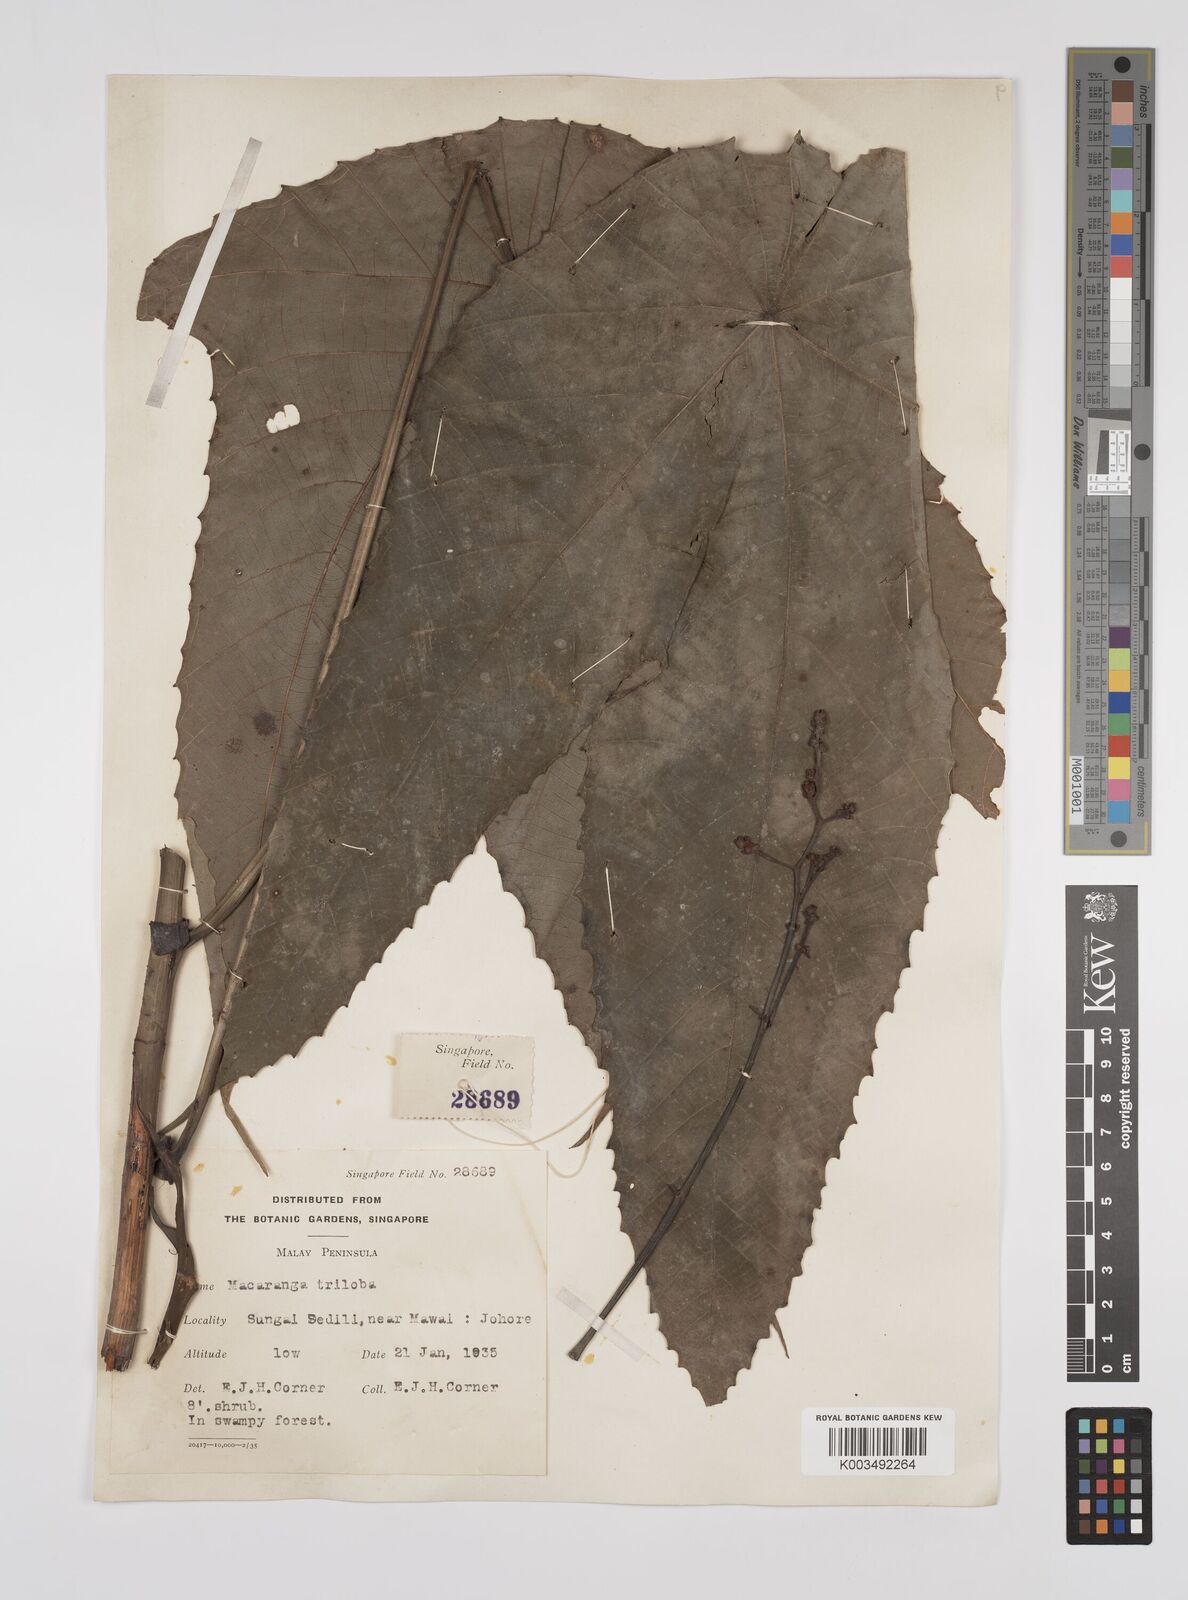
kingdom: Plantae
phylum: Tracheophyta
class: Magnoliopsida
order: Malpighiales
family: Euphorbiaceae
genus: Macaranga
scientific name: Macaranga triloba
